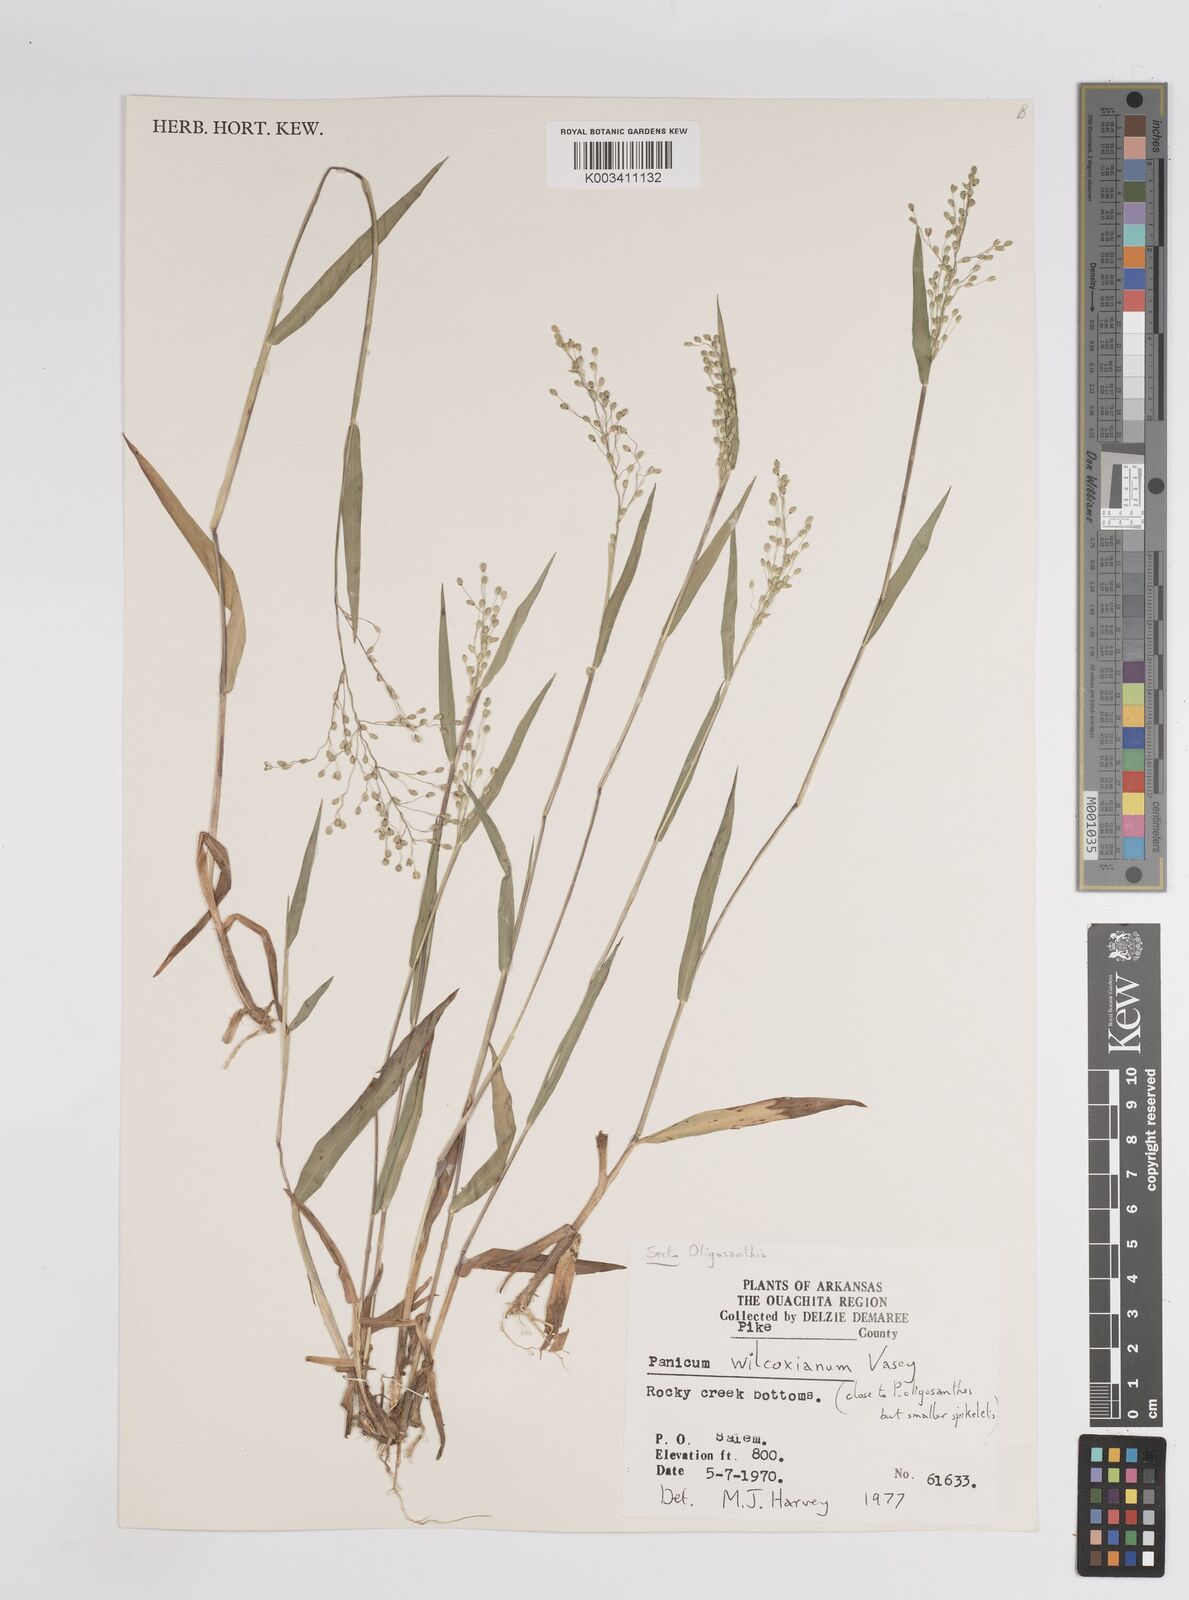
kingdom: Plantae
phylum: Tracheophyta
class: Liliopsida
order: Poales
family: Poaceae
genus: Dichanthelium
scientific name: Dichanthelium wilcoxianum
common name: Wilcox's panicgrass
